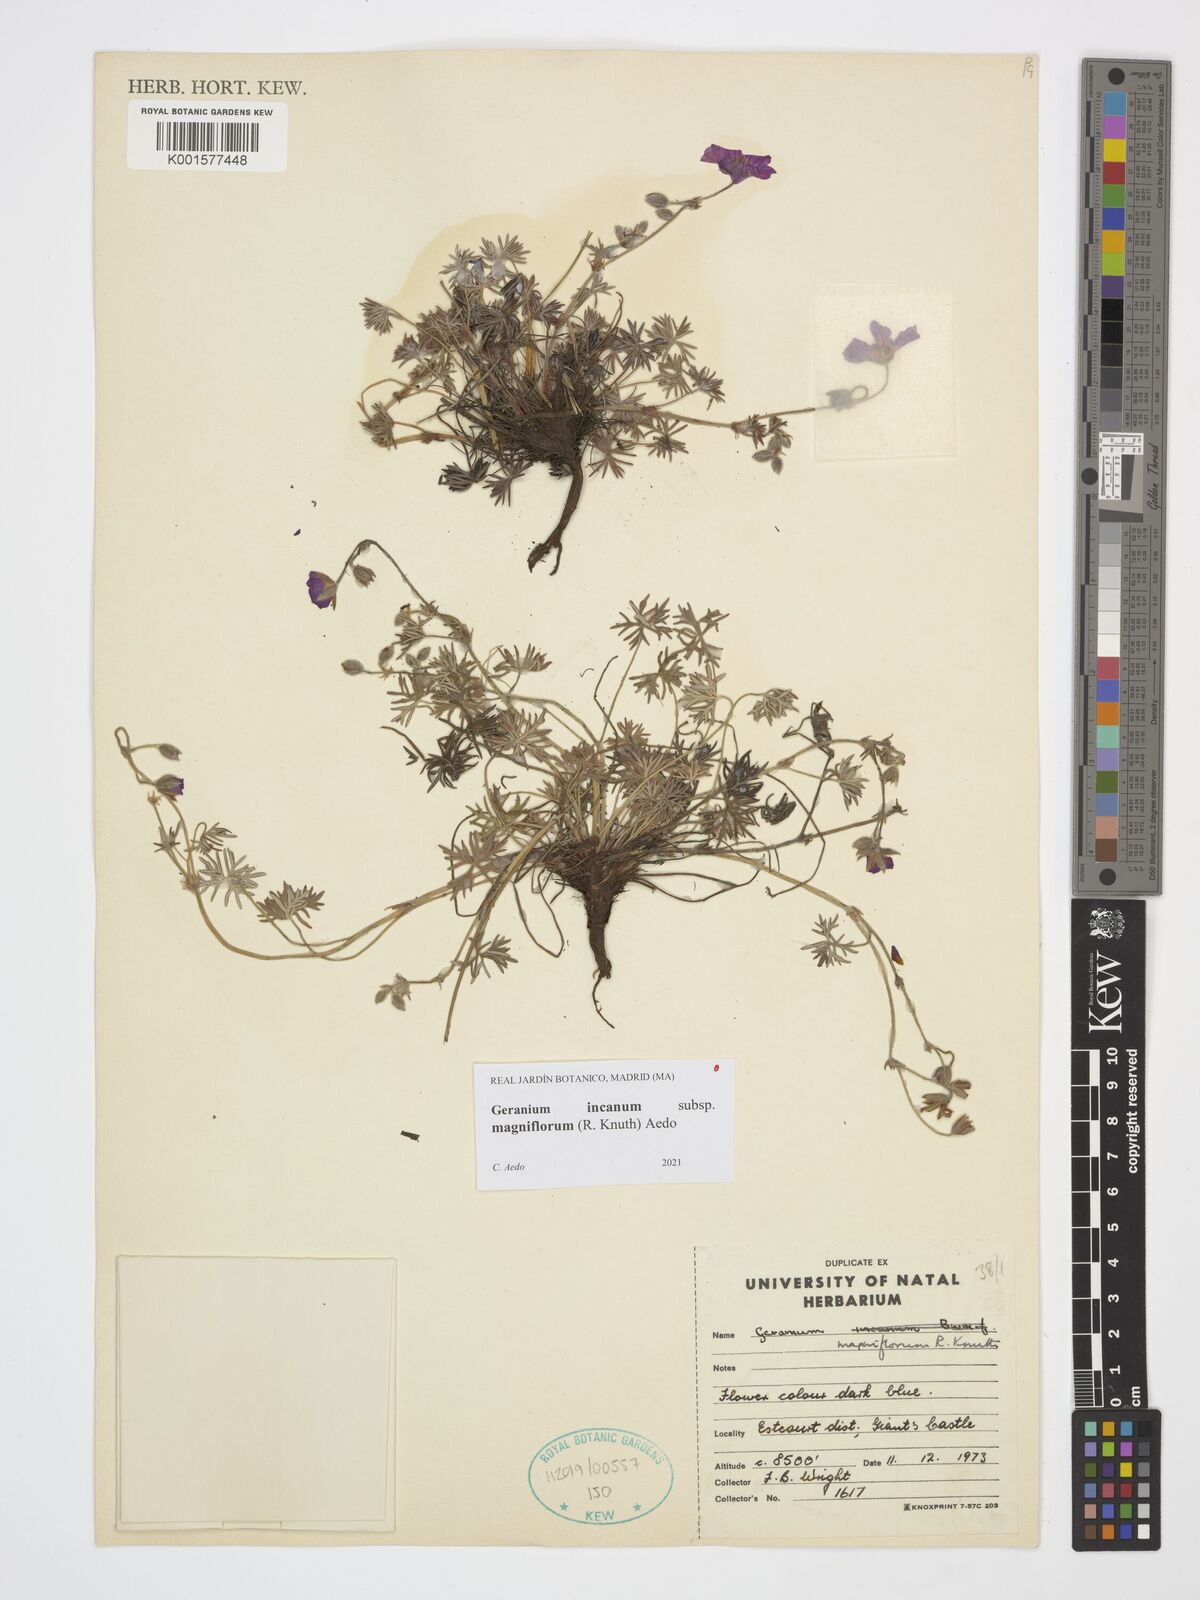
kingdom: Plantae
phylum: Tracheophyta
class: Magnoliopsida
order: Geraniales
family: Geraniaceae
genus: Geranium
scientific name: Geranium incanum
